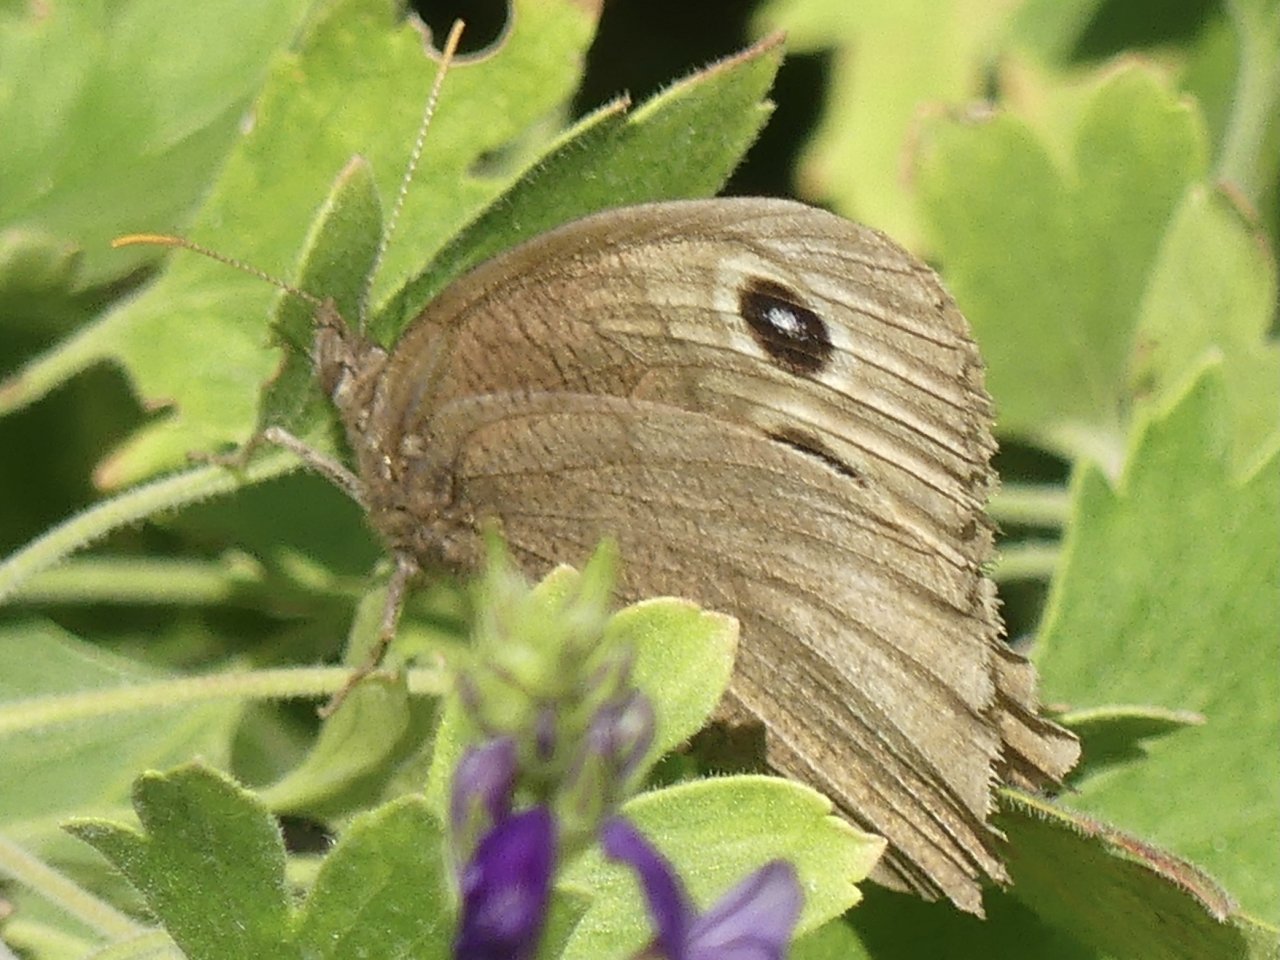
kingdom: Animalia
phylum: Arthropoda
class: Insecta
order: Lepidoptera
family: Nymphalidae
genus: Cercyonis
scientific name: Cercyonis pegala
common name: Common Wood-Nymph
